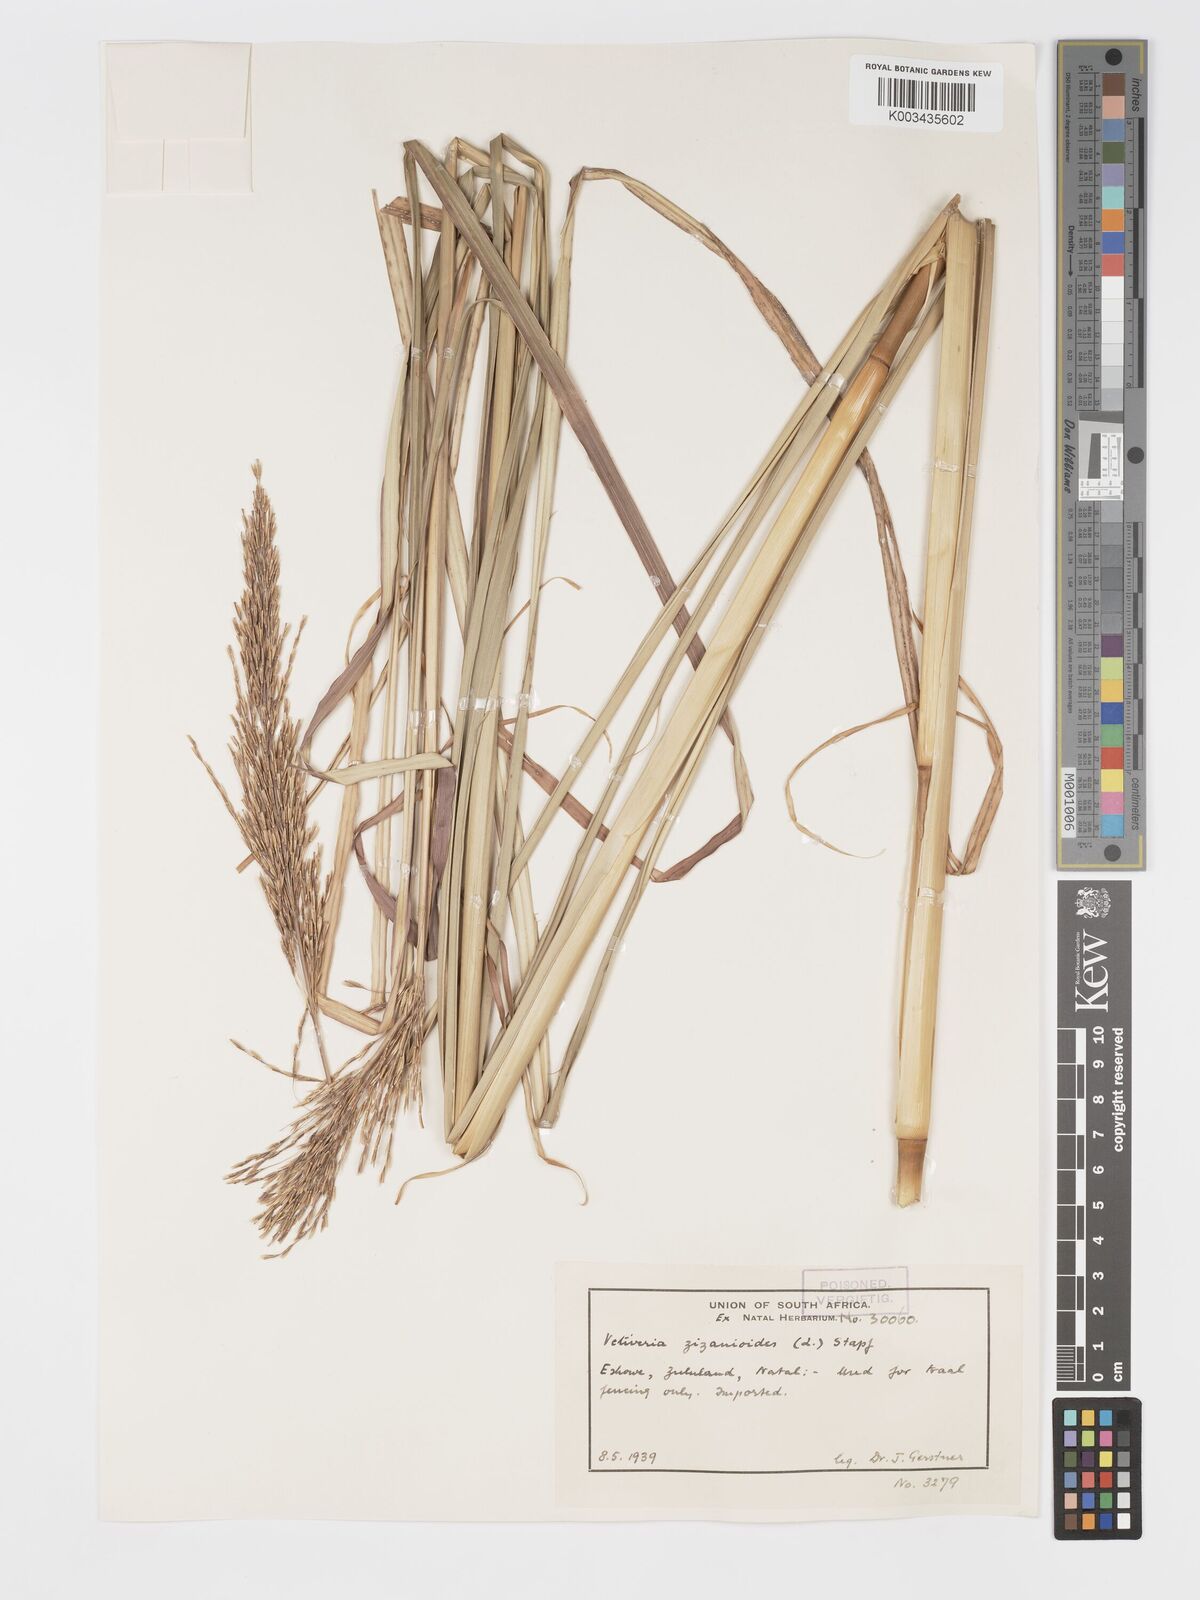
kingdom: Plantae
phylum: Tracheophyta
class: Liliopsida
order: Poales
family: Poaceae
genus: Chrysopogon
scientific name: Chrysopogon zizanioides
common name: False beardgrass
